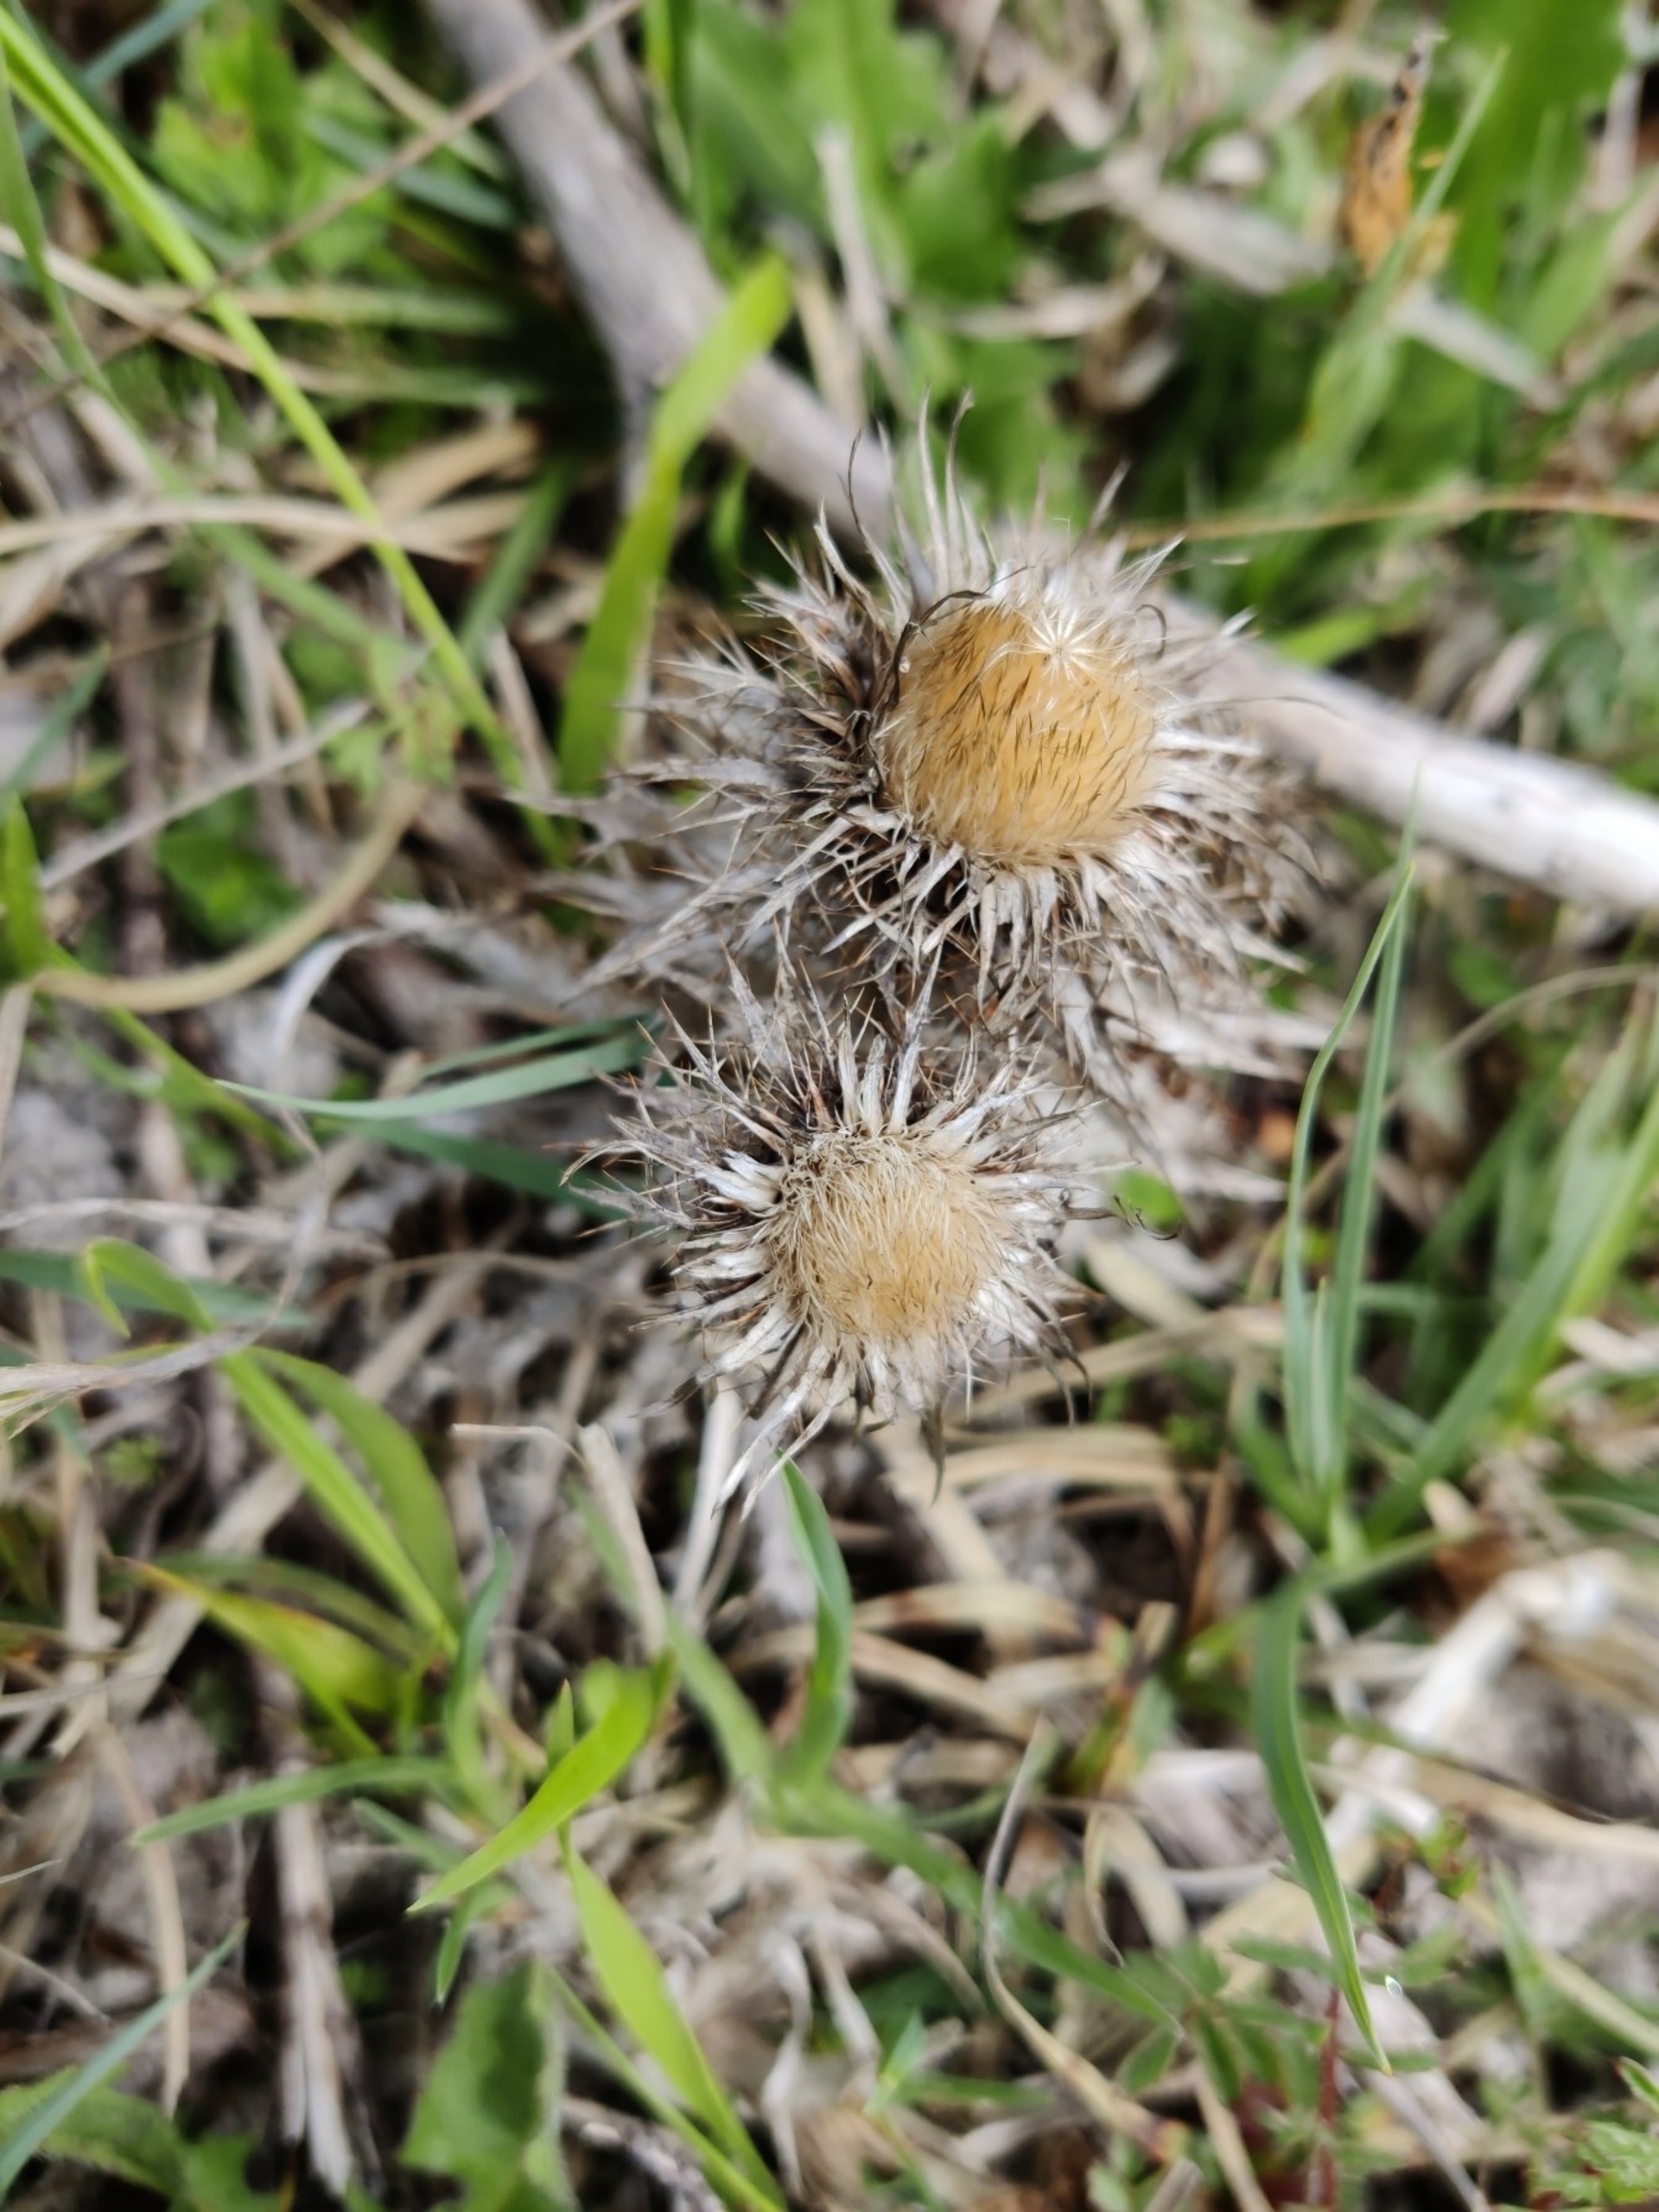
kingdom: Plantae
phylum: Tracheophyta
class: Magnoliopsida
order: Asterales
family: Asteraceae
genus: Carlina
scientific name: Carlina vulgaris
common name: Bakketidsel
